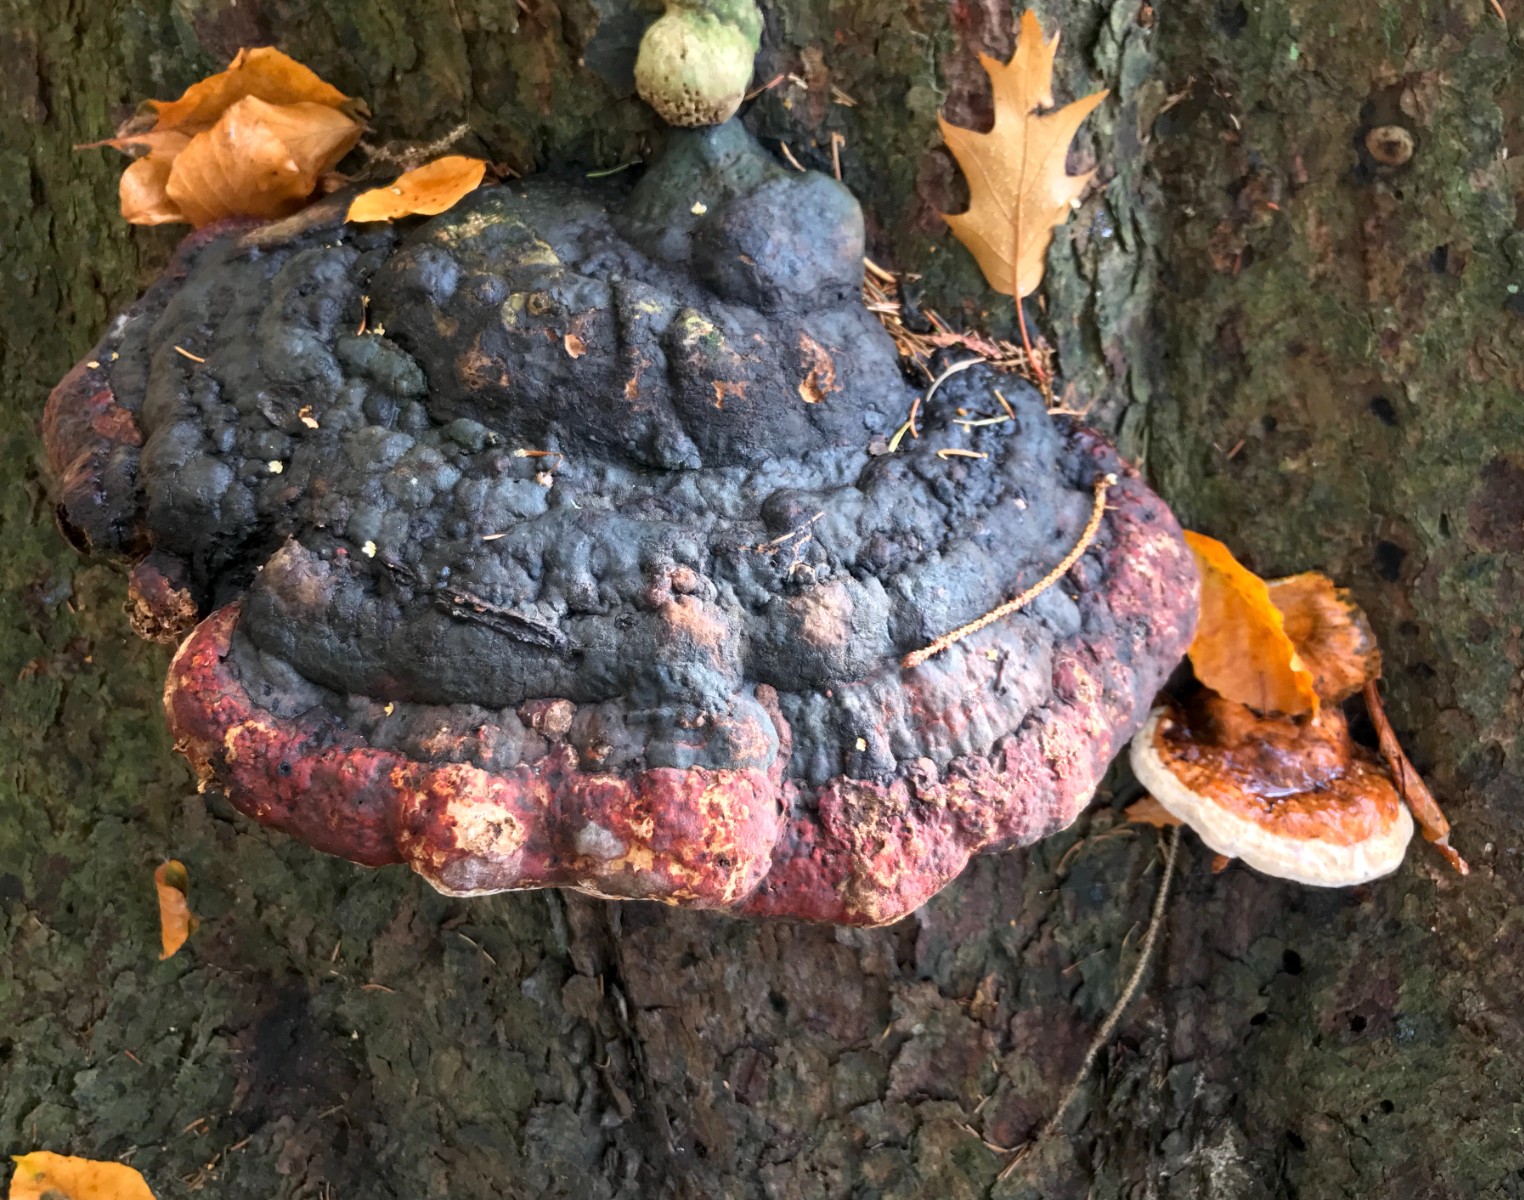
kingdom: Fungi
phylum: Basidiomycota
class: Agaricomycetes
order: Polyporales
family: Fomitopsidaceae
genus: Fomitopsis
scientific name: Fomitopsis pinicola
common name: randbæltet hovporesvamp
